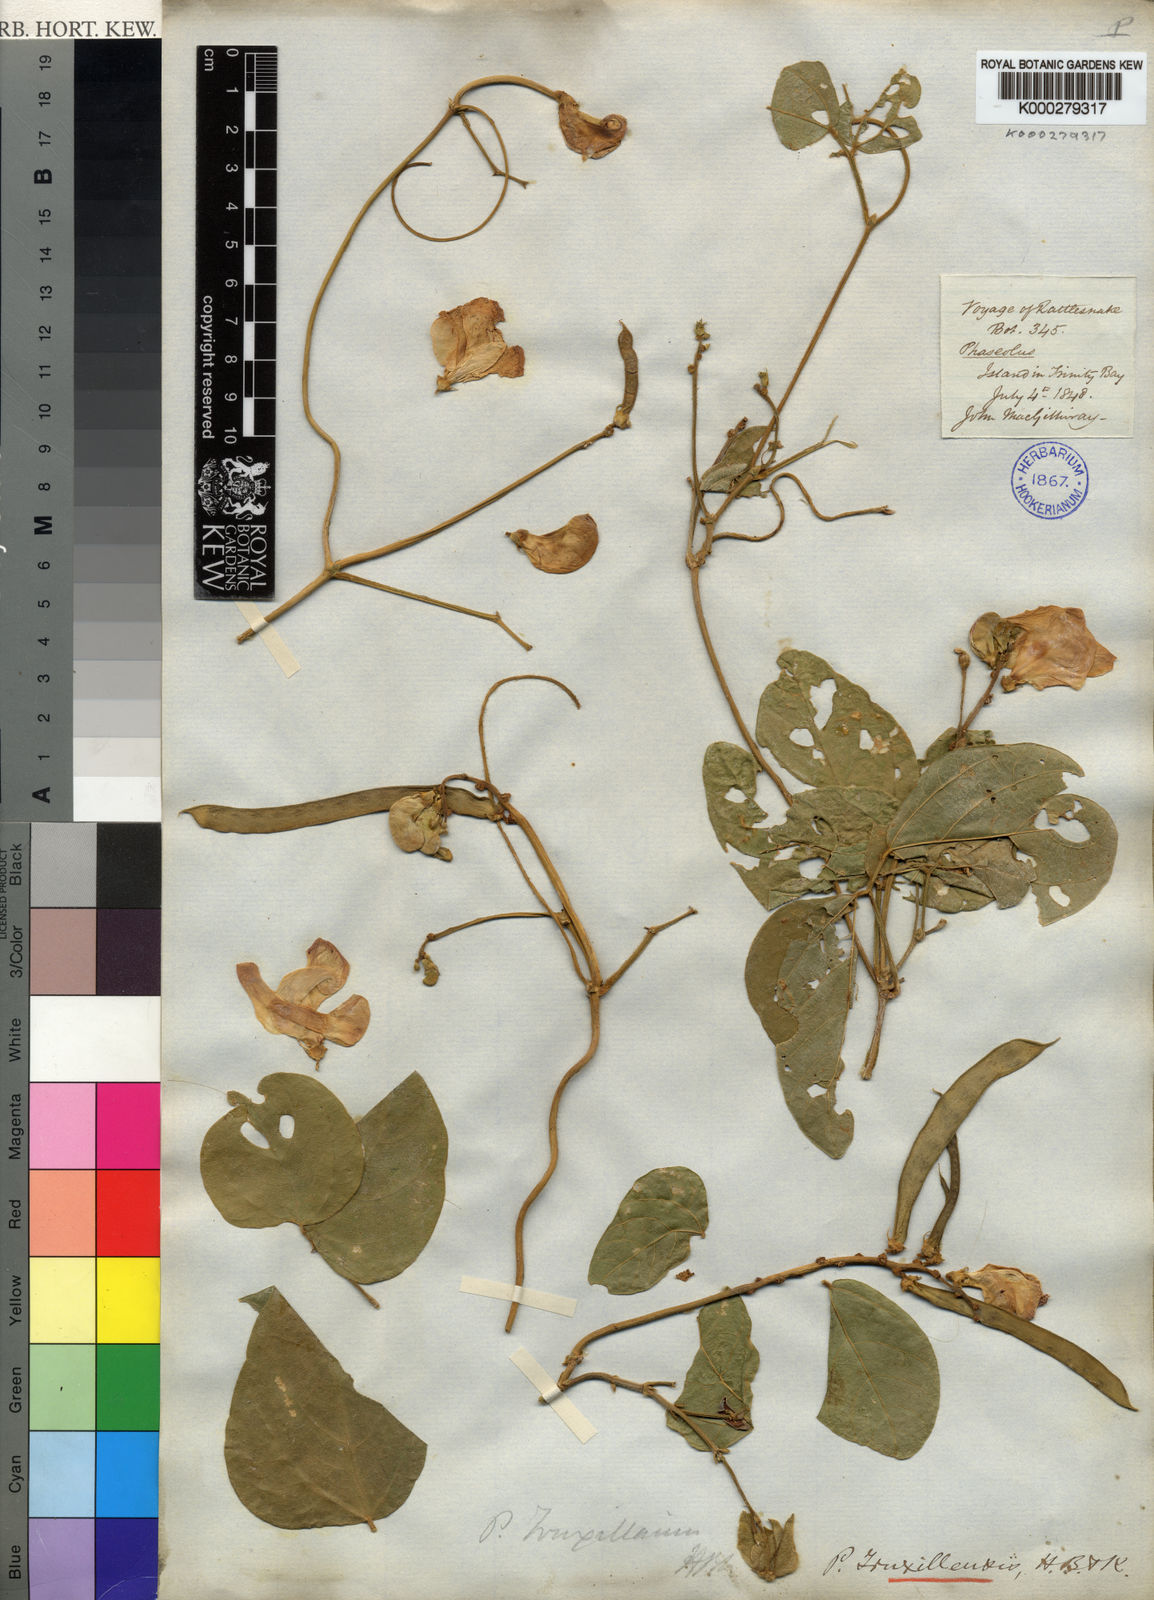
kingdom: Plantae
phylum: Tracheophyta
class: Magnoliopsida
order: Fabales
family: Fabaceae
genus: Vigna
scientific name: Vigna truxillensis
